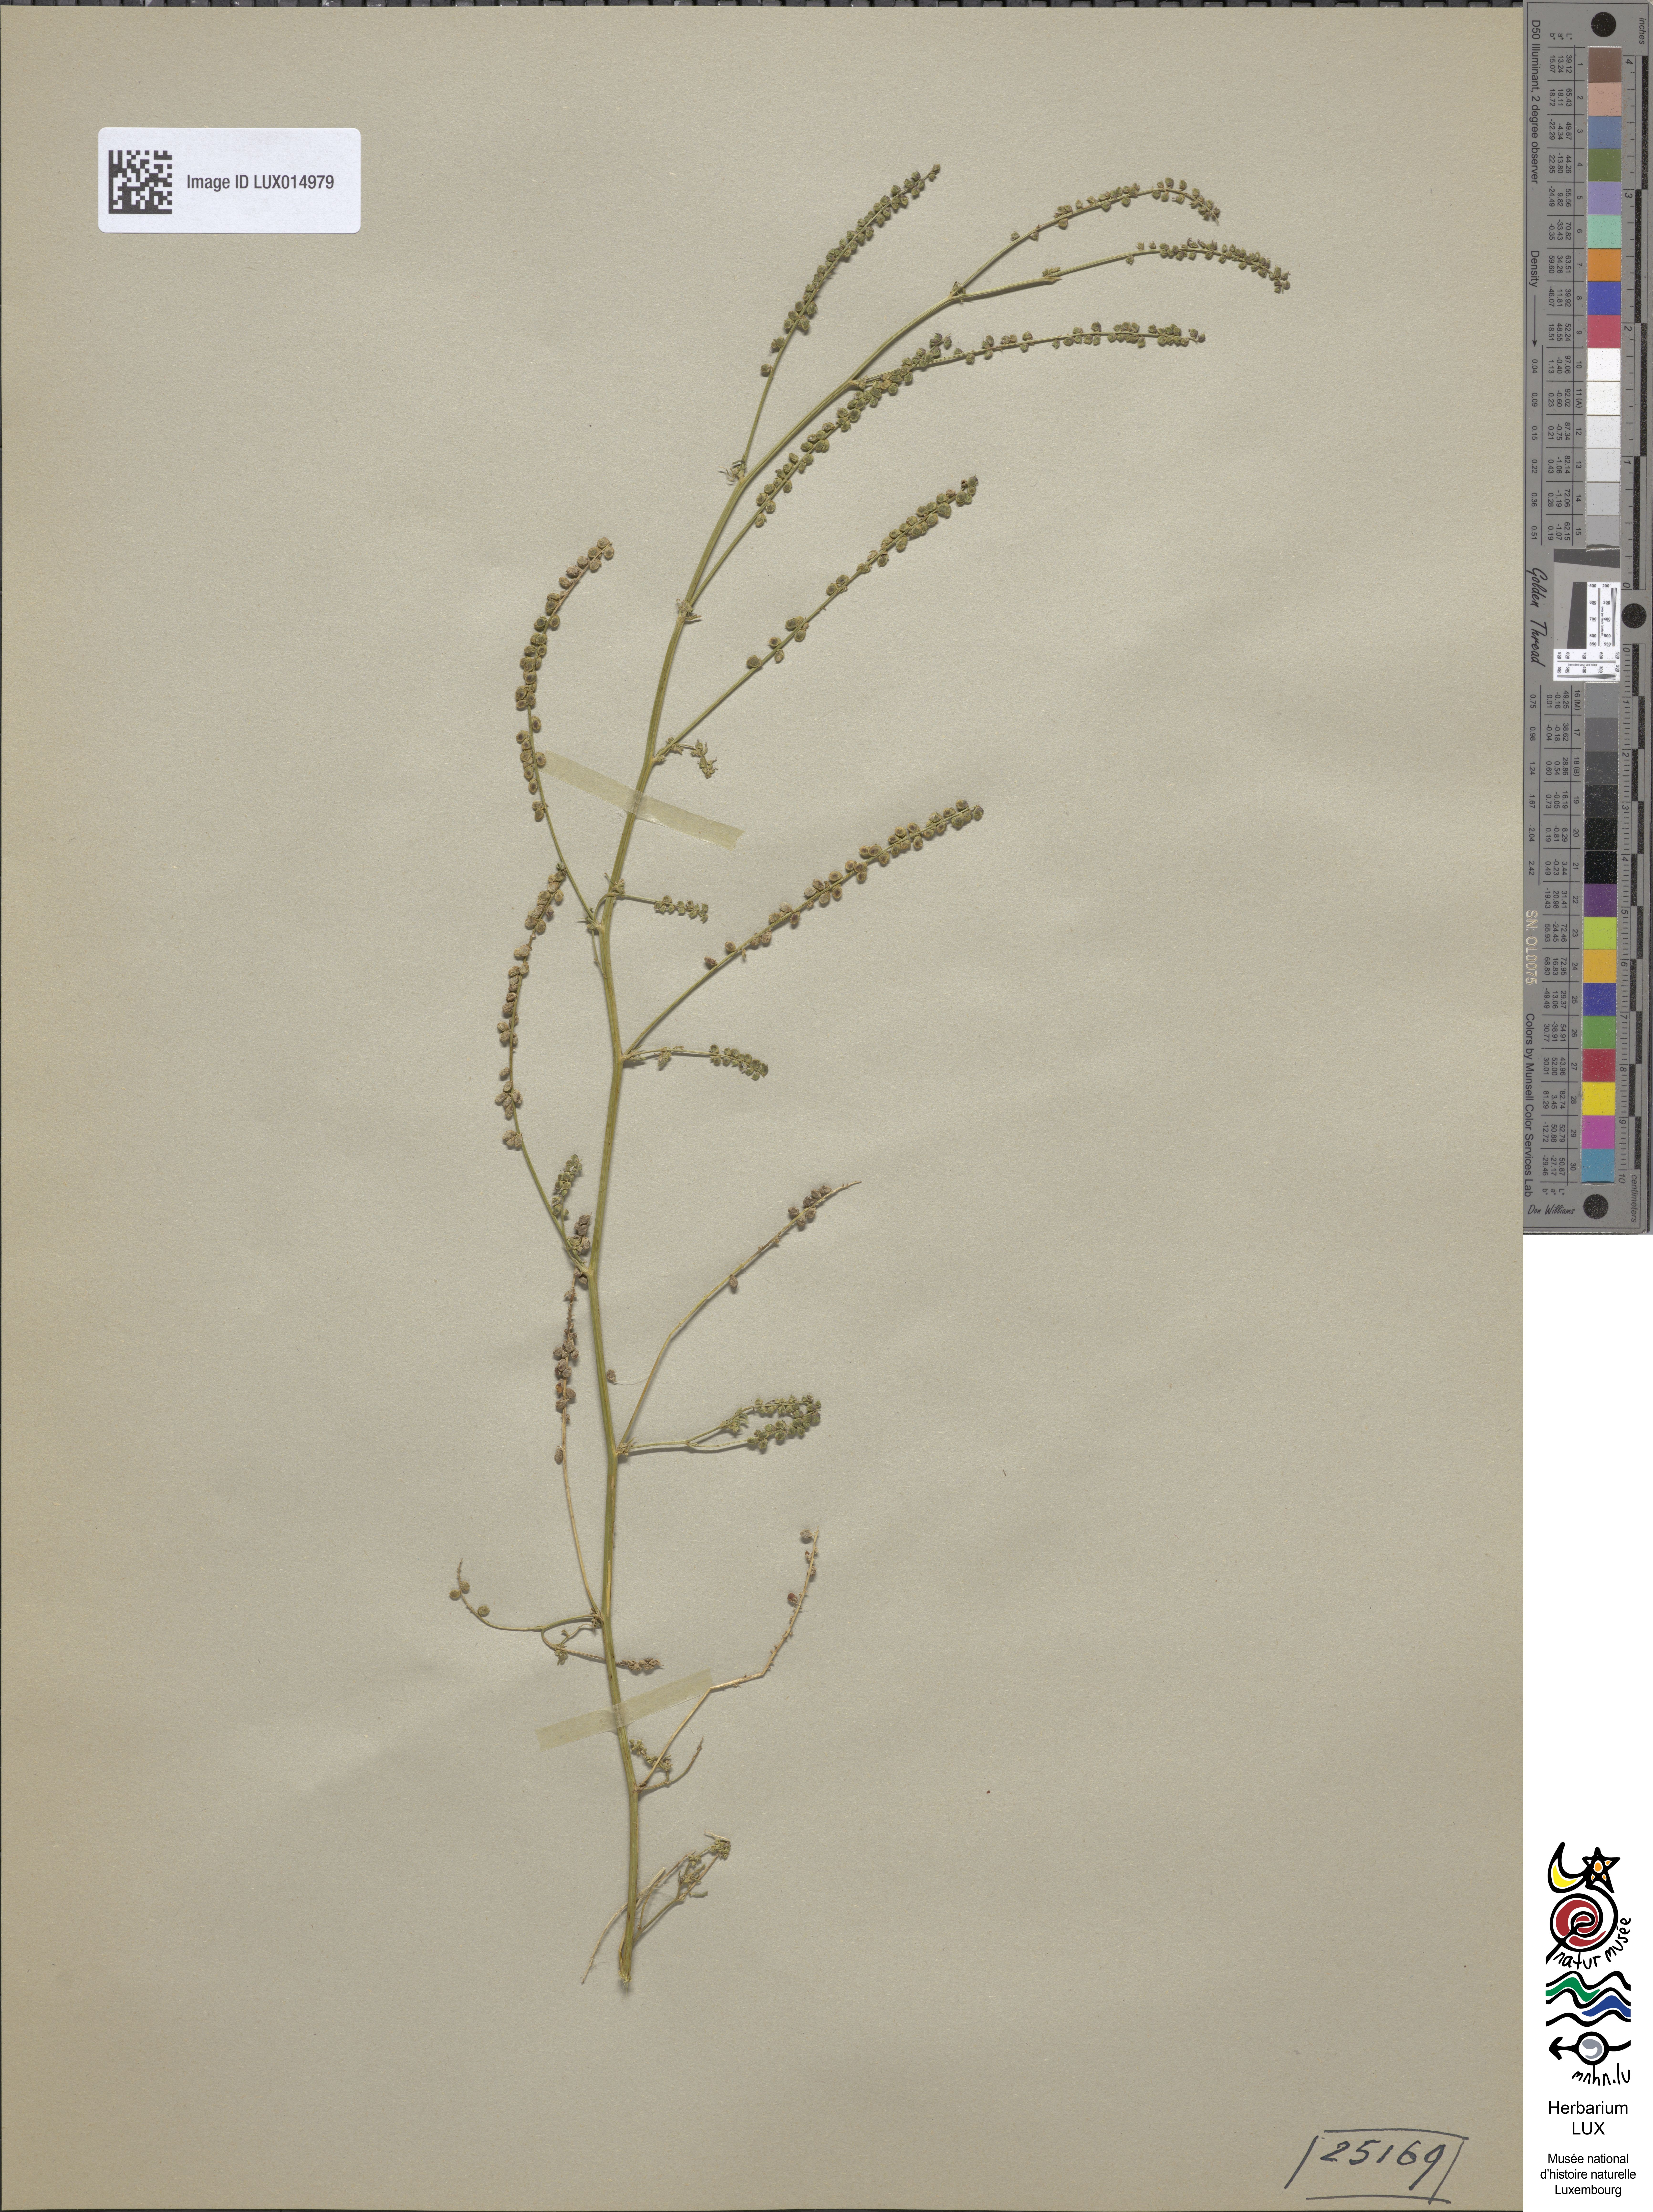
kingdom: Plantae
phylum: Tracheophyta
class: Magnoliopsida
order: Fabales
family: Fabaceae
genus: Melilotus
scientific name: Melilotus indicus
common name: Small melilot
